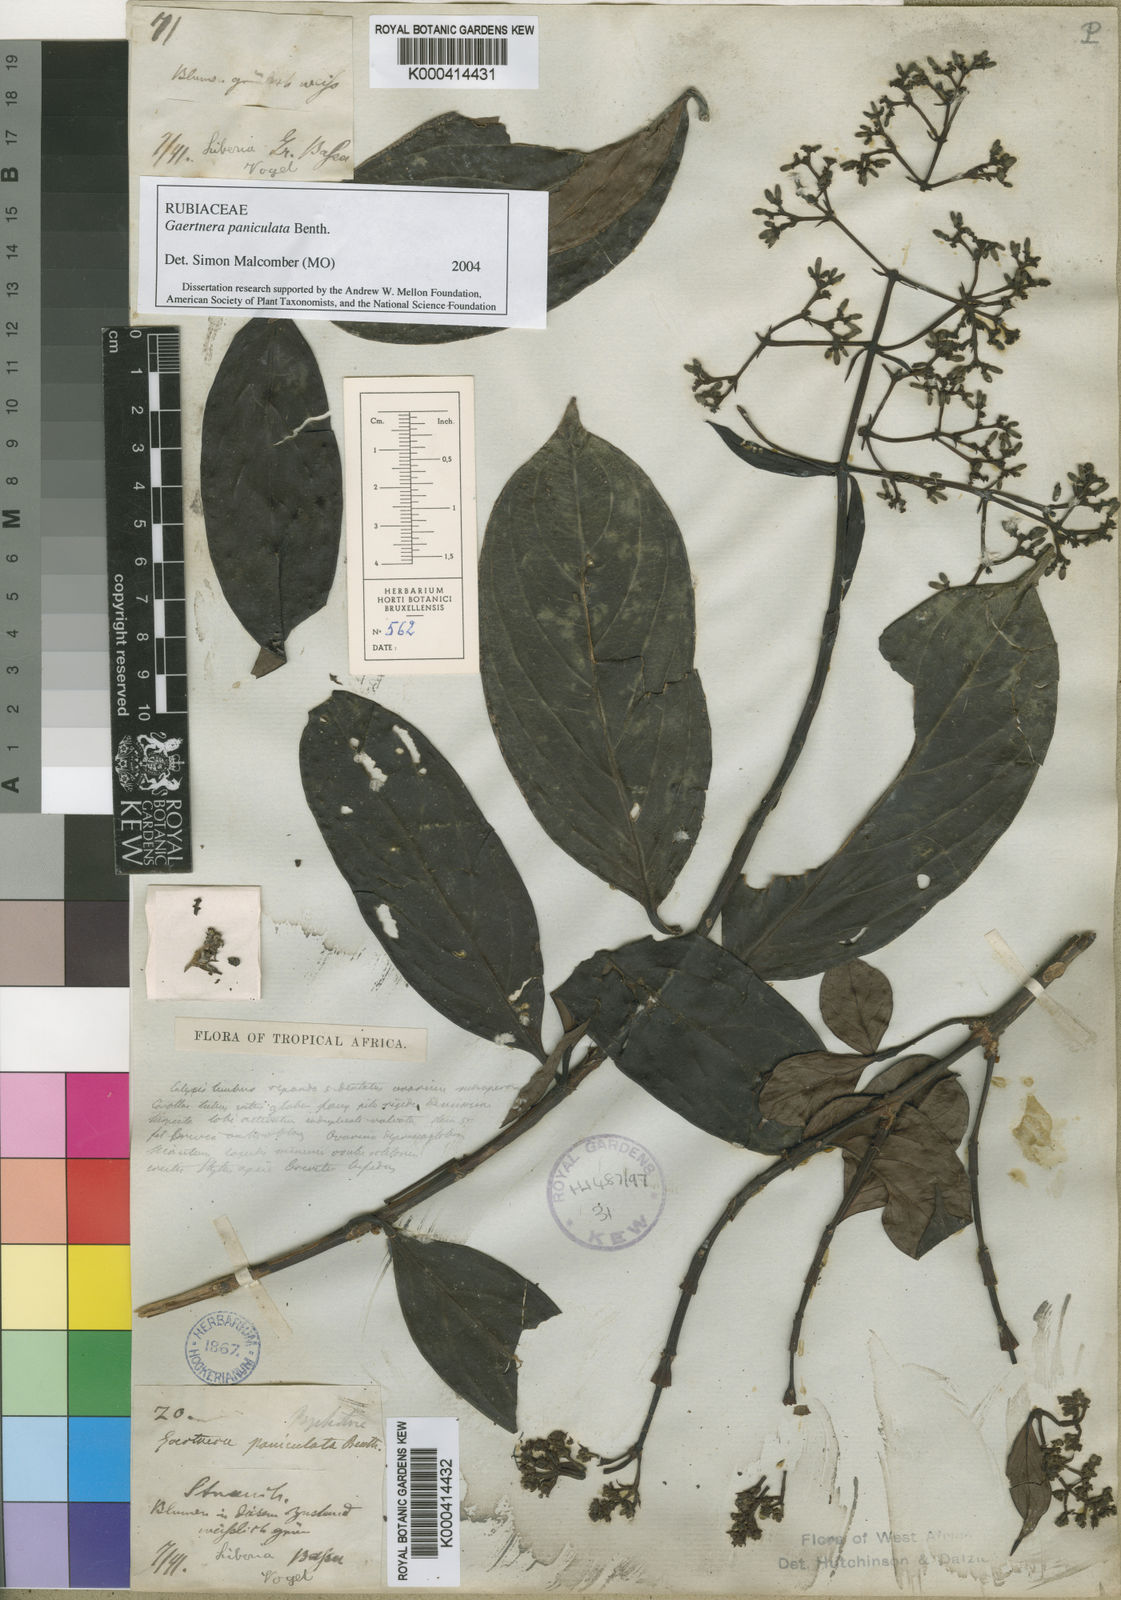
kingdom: Plantae
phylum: Tracheophyta
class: Magnoliopsida
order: Gentianales
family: Rubiaceae
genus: Gaertnera
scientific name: Gaertnera paniculata
